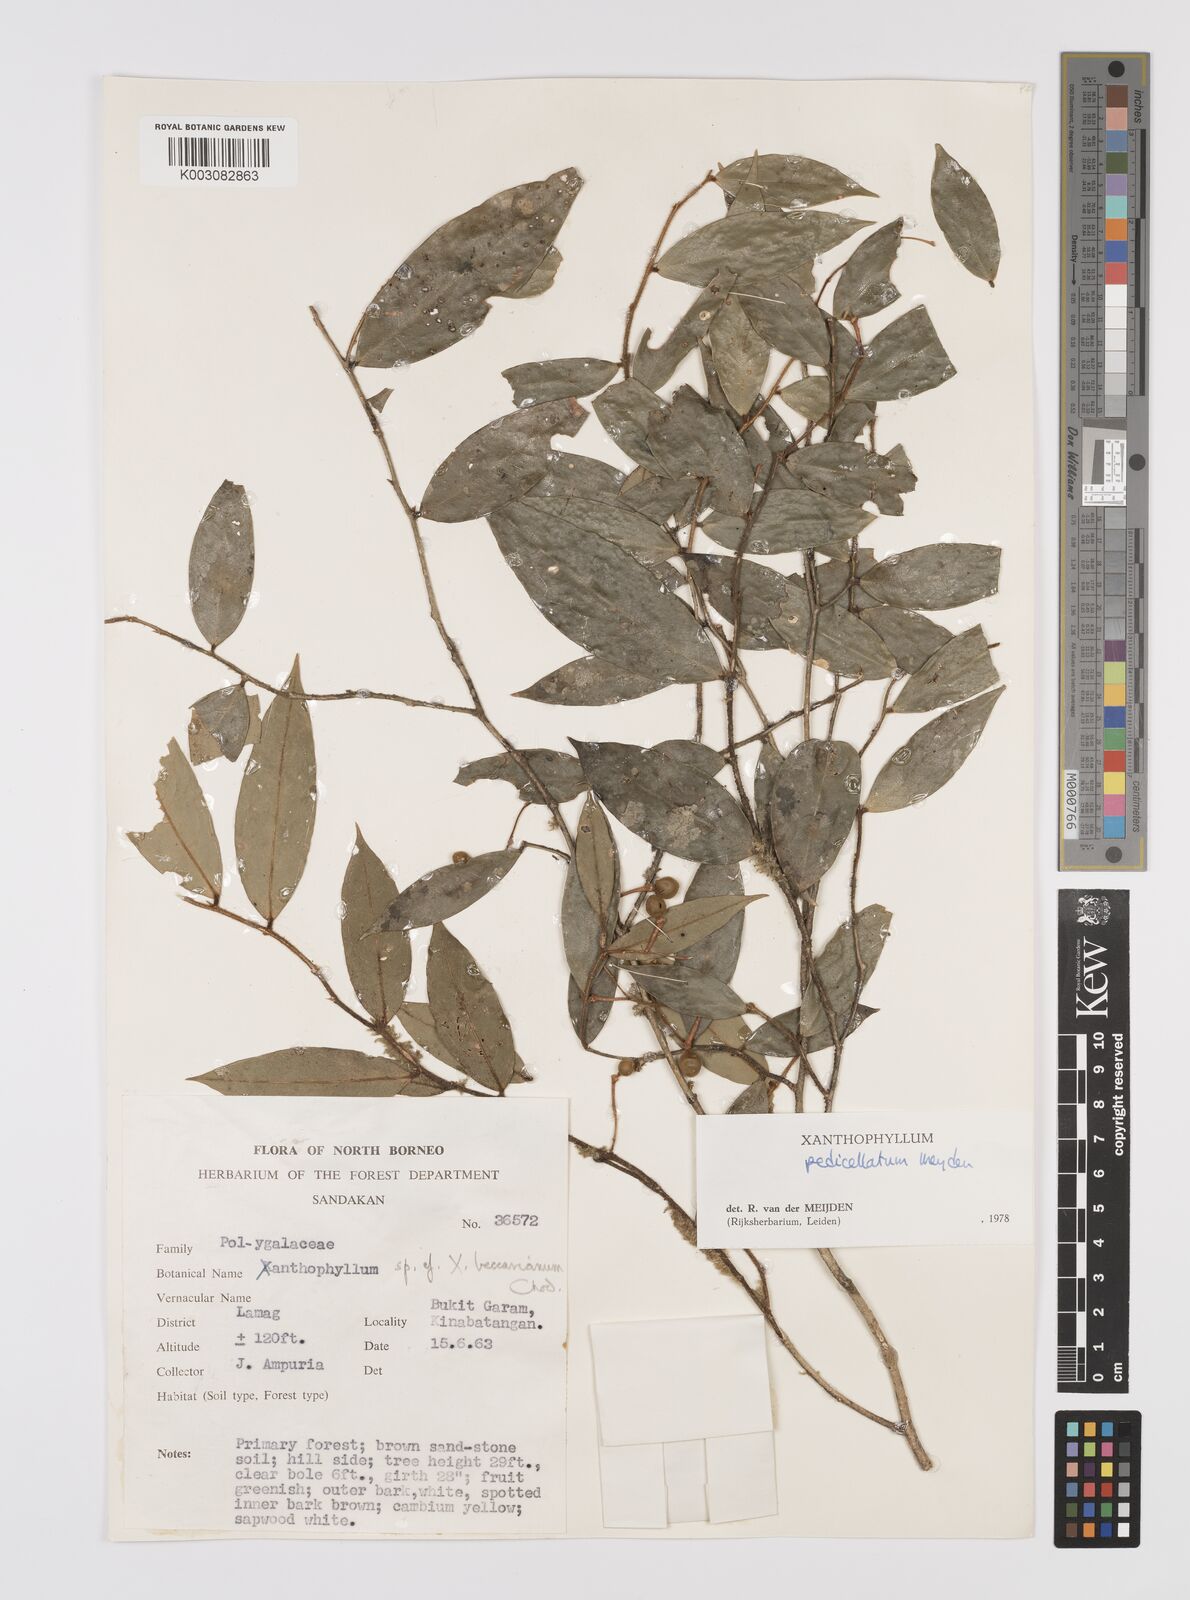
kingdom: Plantae
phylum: Tracheophyta
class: Magnoliopsida
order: Fabales
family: Polygalaceae
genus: Xanthophyllum
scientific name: Xanthophyllum pedicellatum
